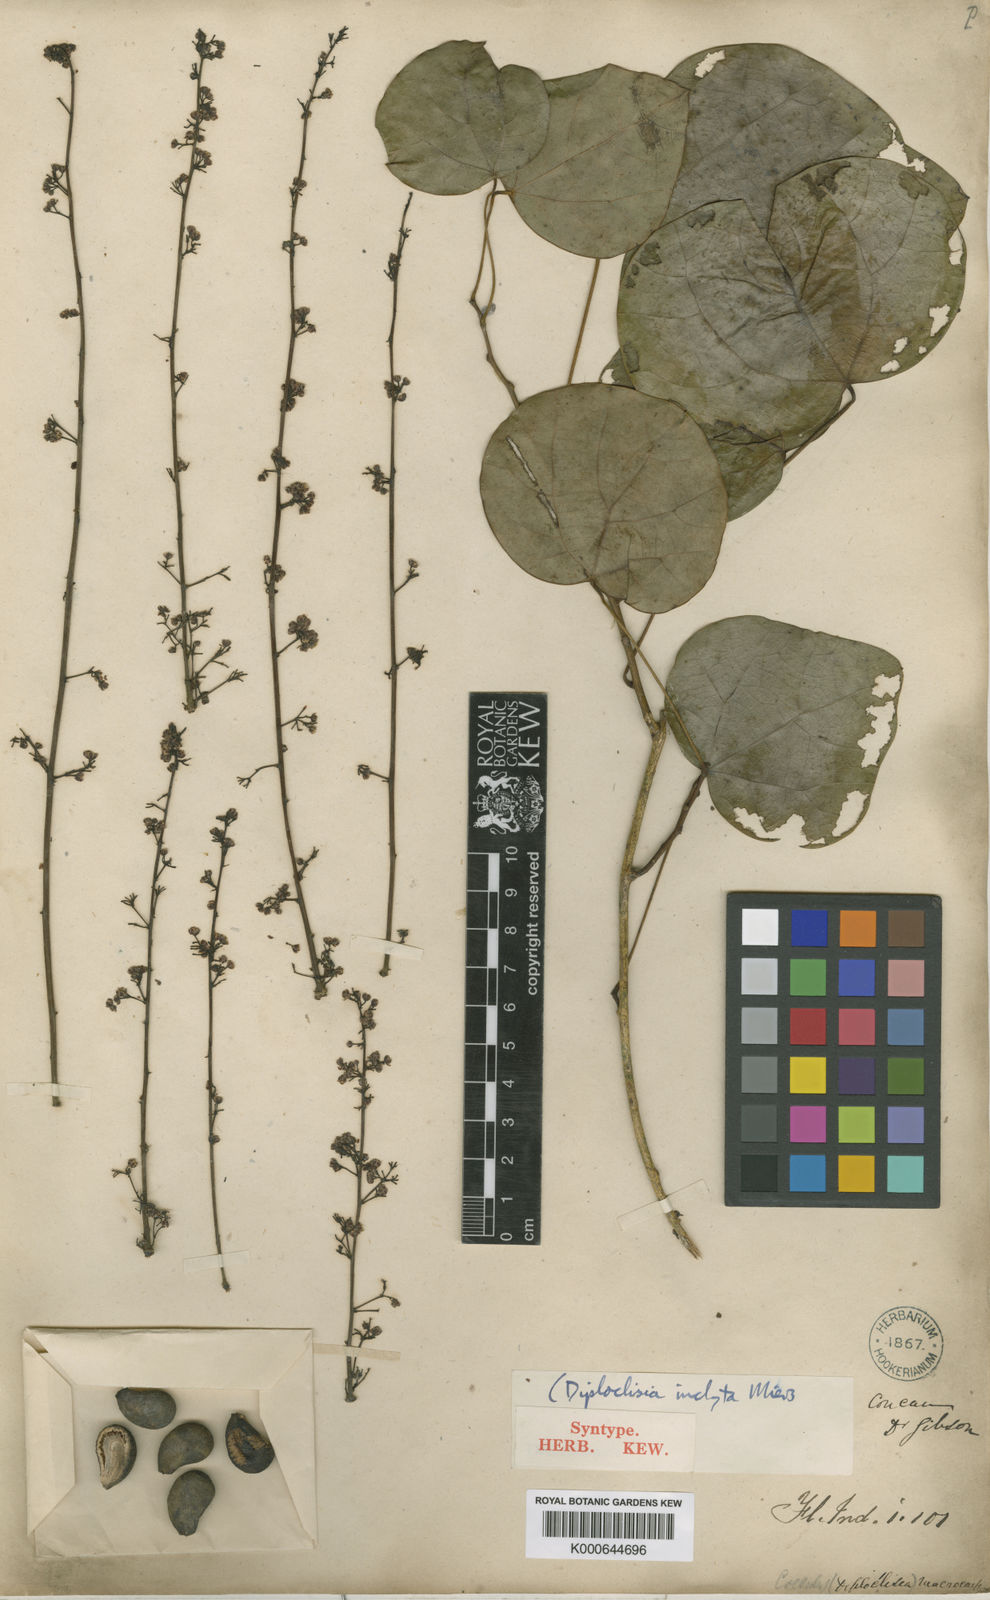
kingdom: Plantae
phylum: Tracheophyta
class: Magnoliopsida
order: Ranunculales
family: Menispermaceae
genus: Diploclisia
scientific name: Diploclisia glaucescens
